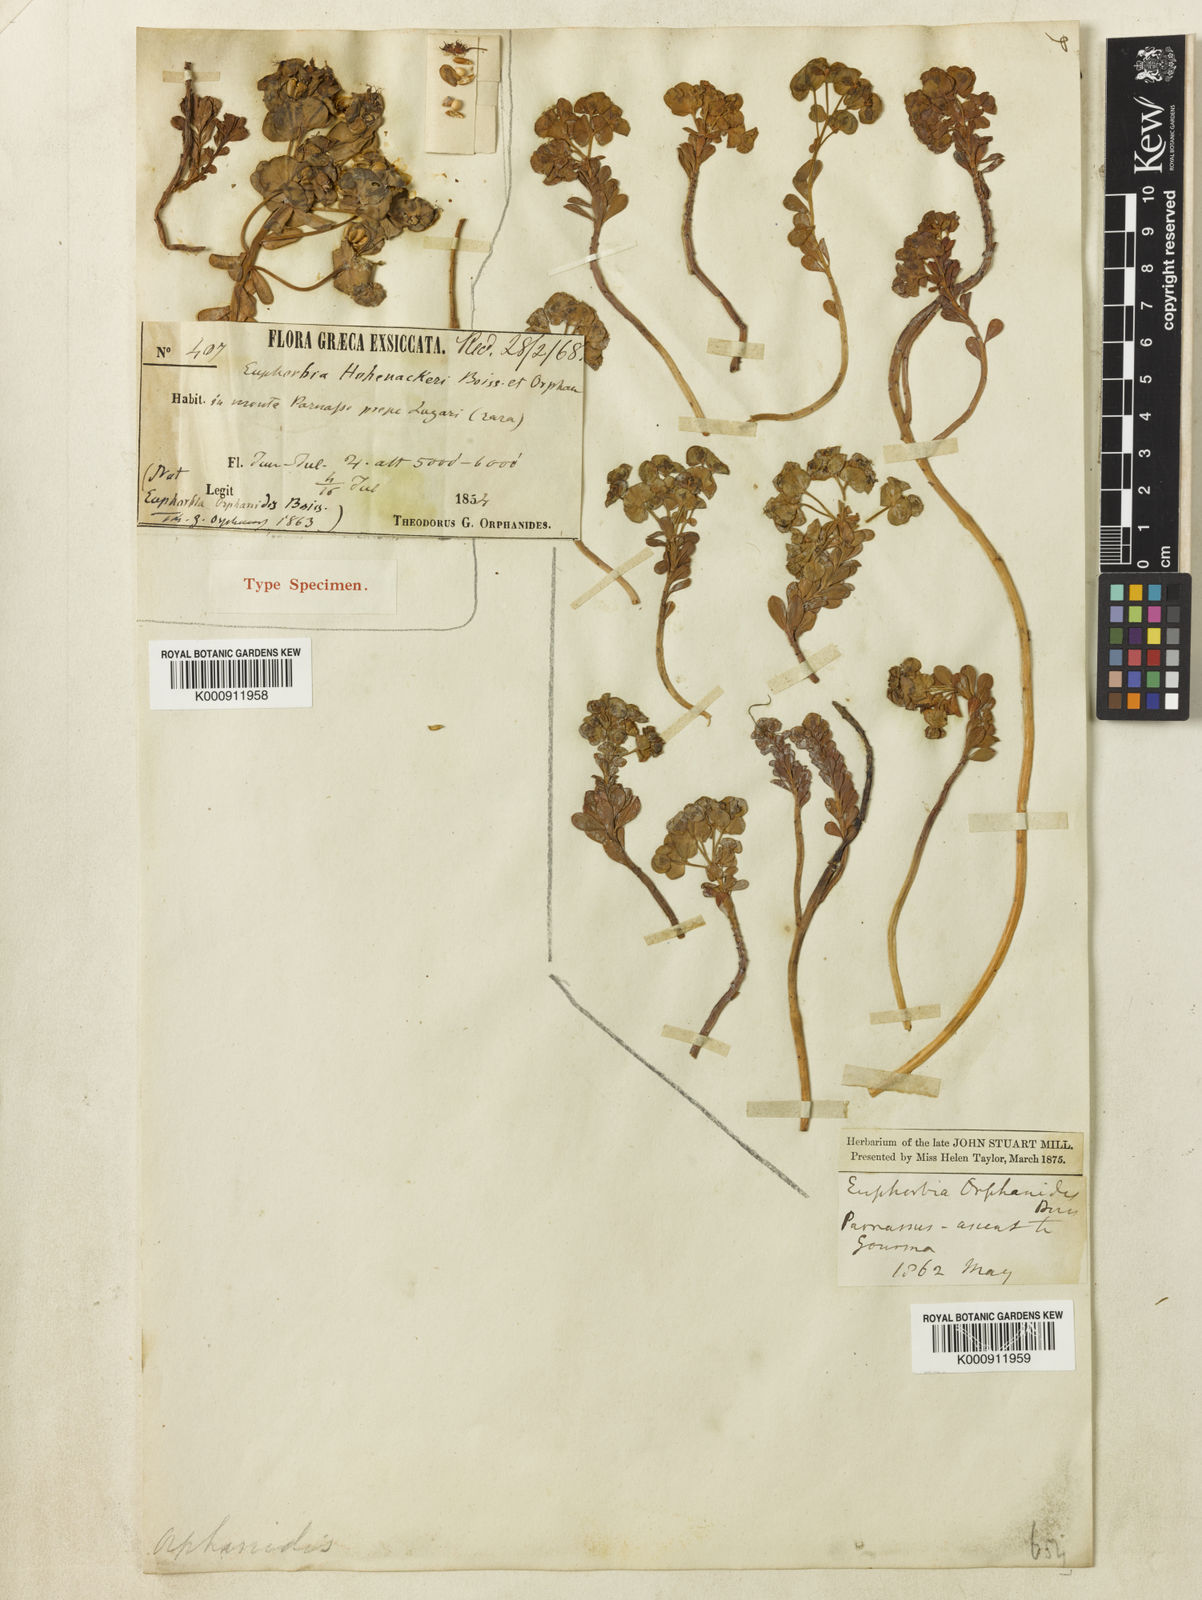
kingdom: Plantae
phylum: Tracheophyta
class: Magnoliopsida
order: Malpighiales
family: Euphorbiaceae
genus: Euphorbia
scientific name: Euphorbia orphanidis
